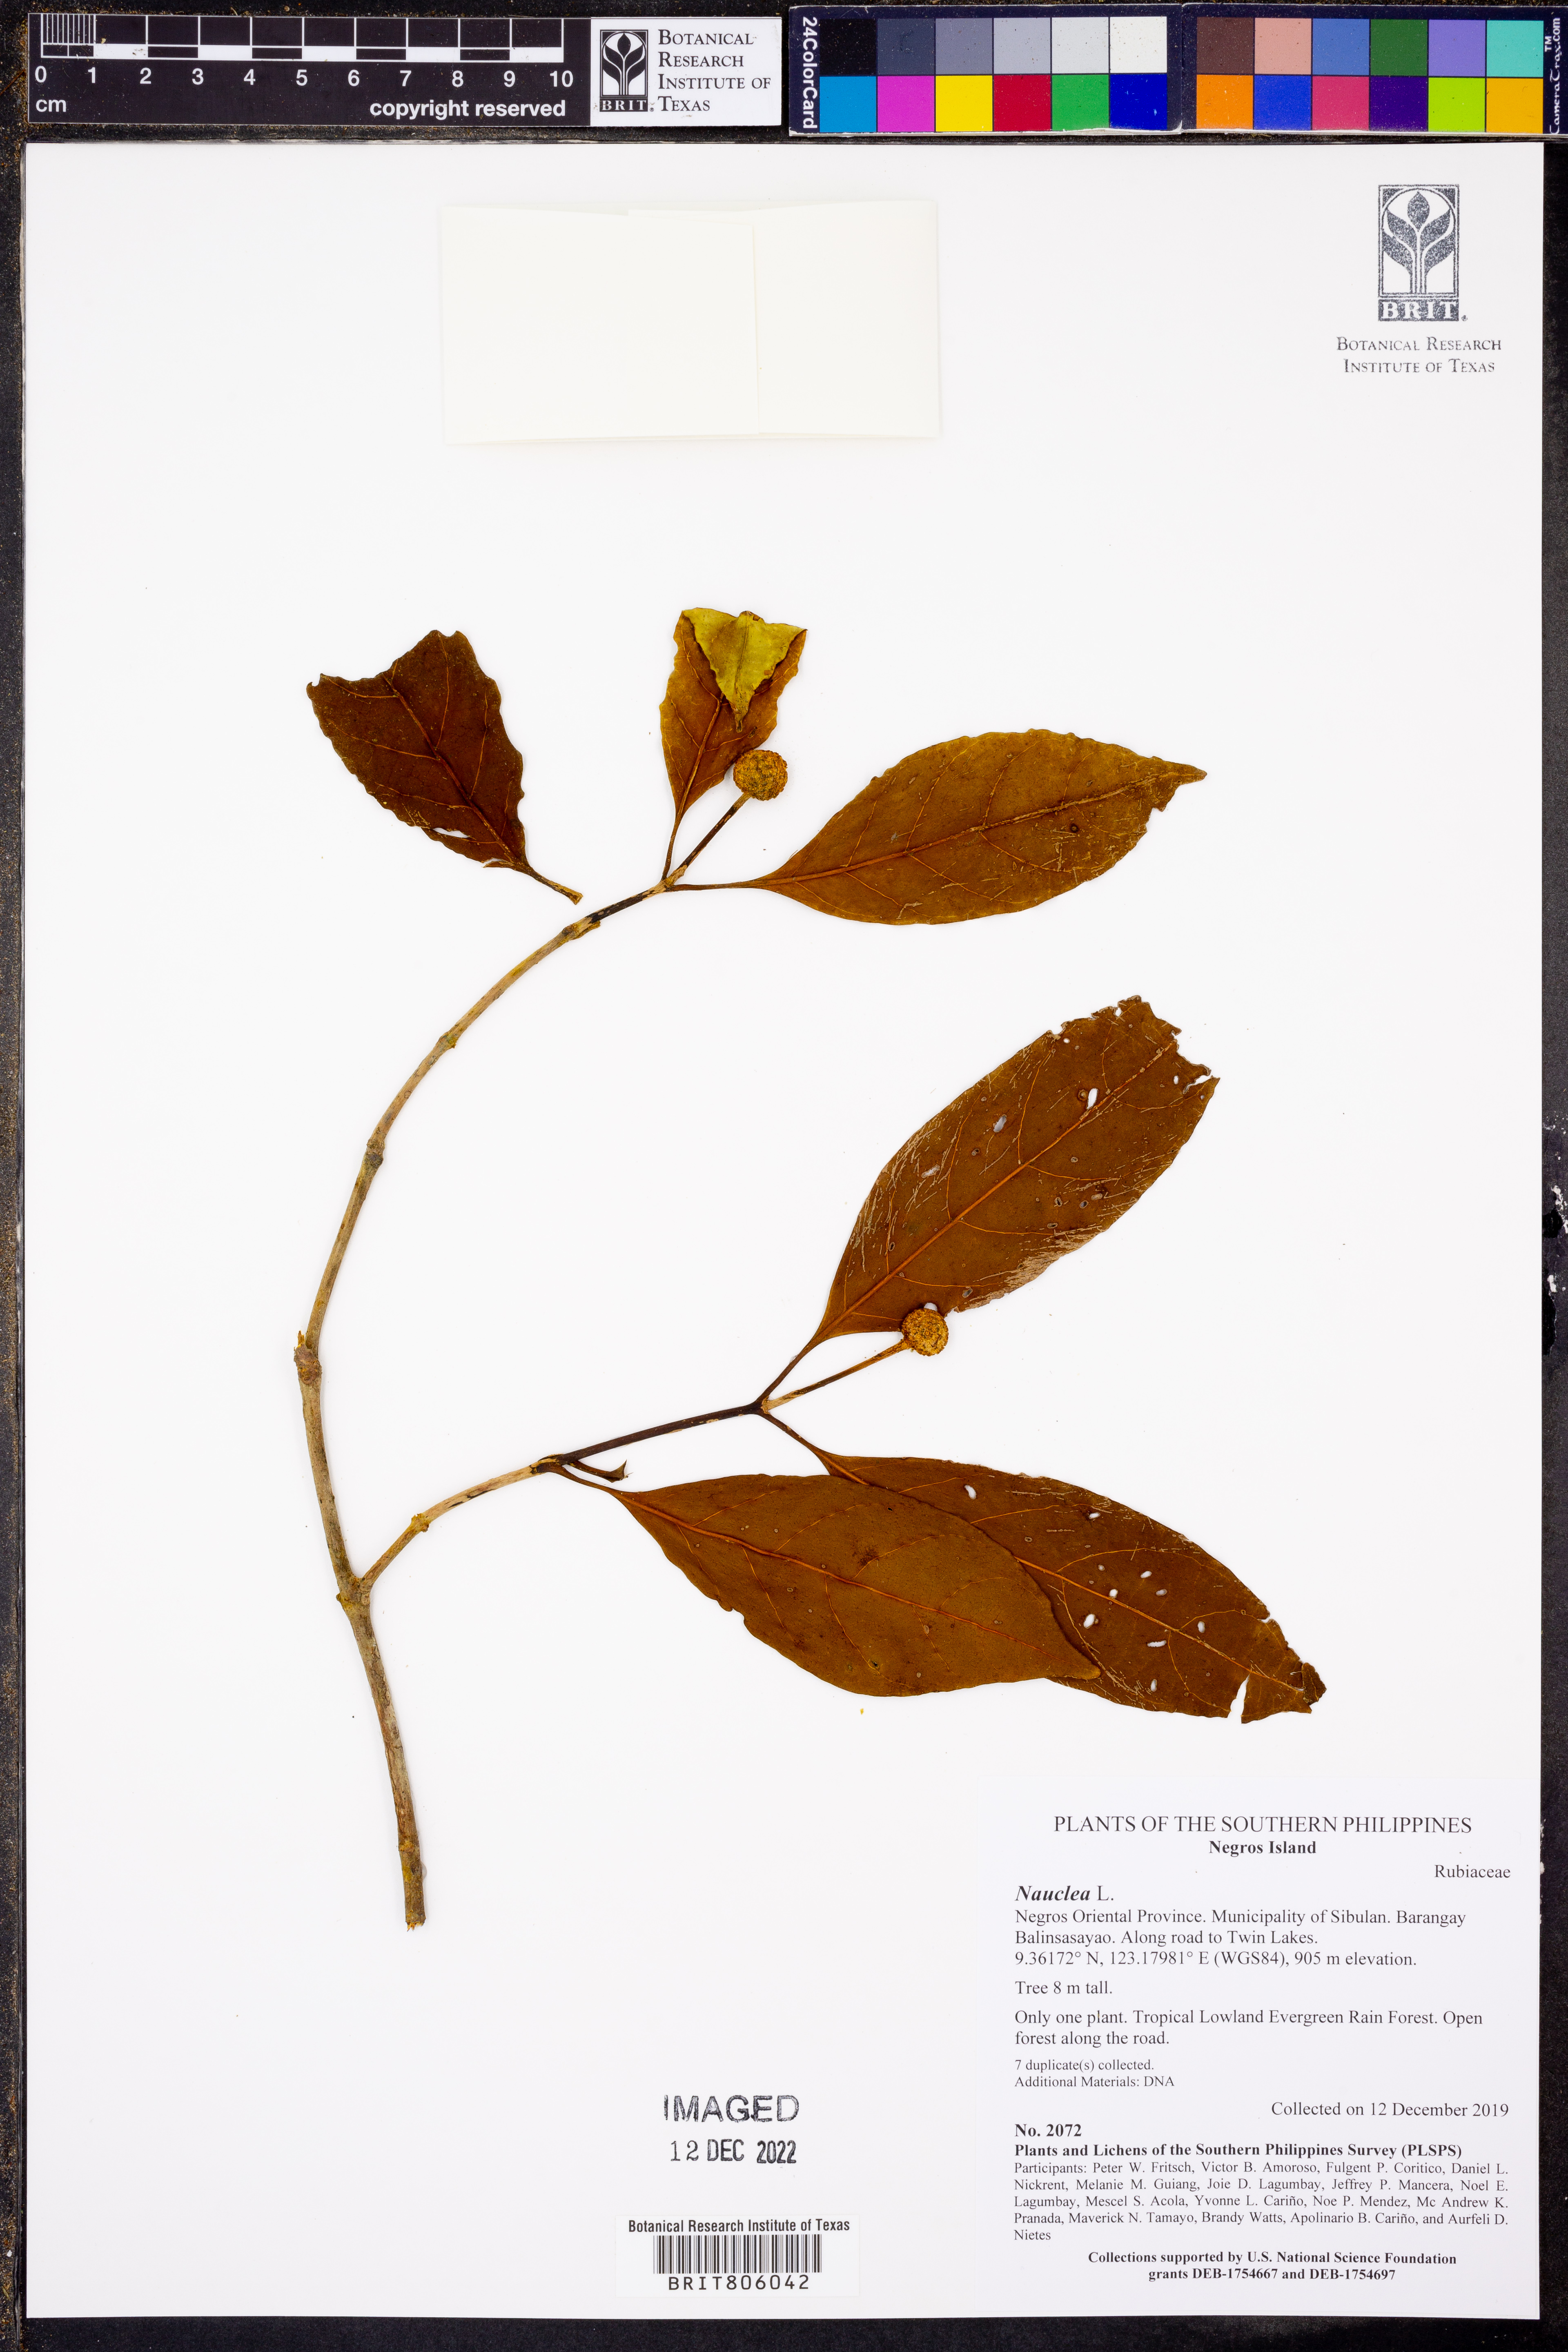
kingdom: Plantae
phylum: Tracheophyta
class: Magnoliopsida
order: Gentianales
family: Rubiaceae
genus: Nauclea
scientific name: Nauclea
